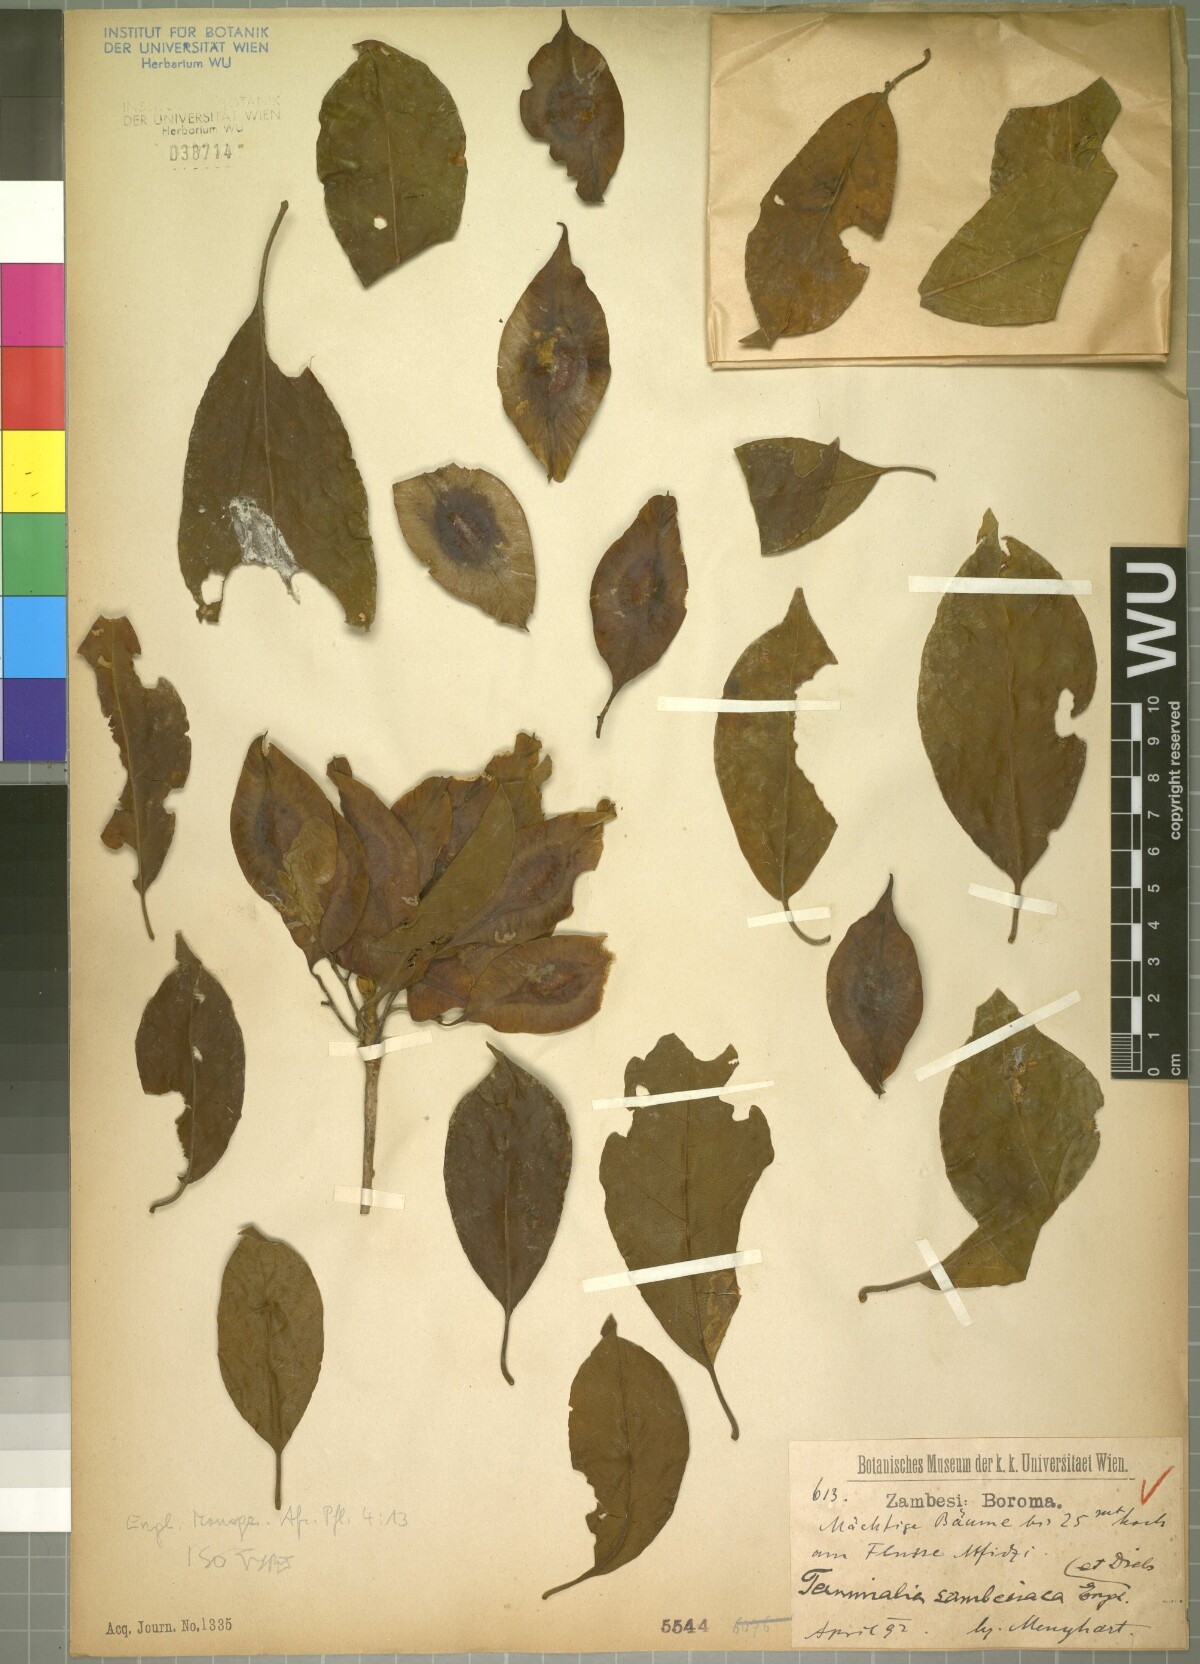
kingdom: Plantae
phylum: Tracheophyta
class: Magnoliopsida
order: Myrtales
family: Combretaceae
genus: Terminalia
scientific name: Terminalia sambesiaca
